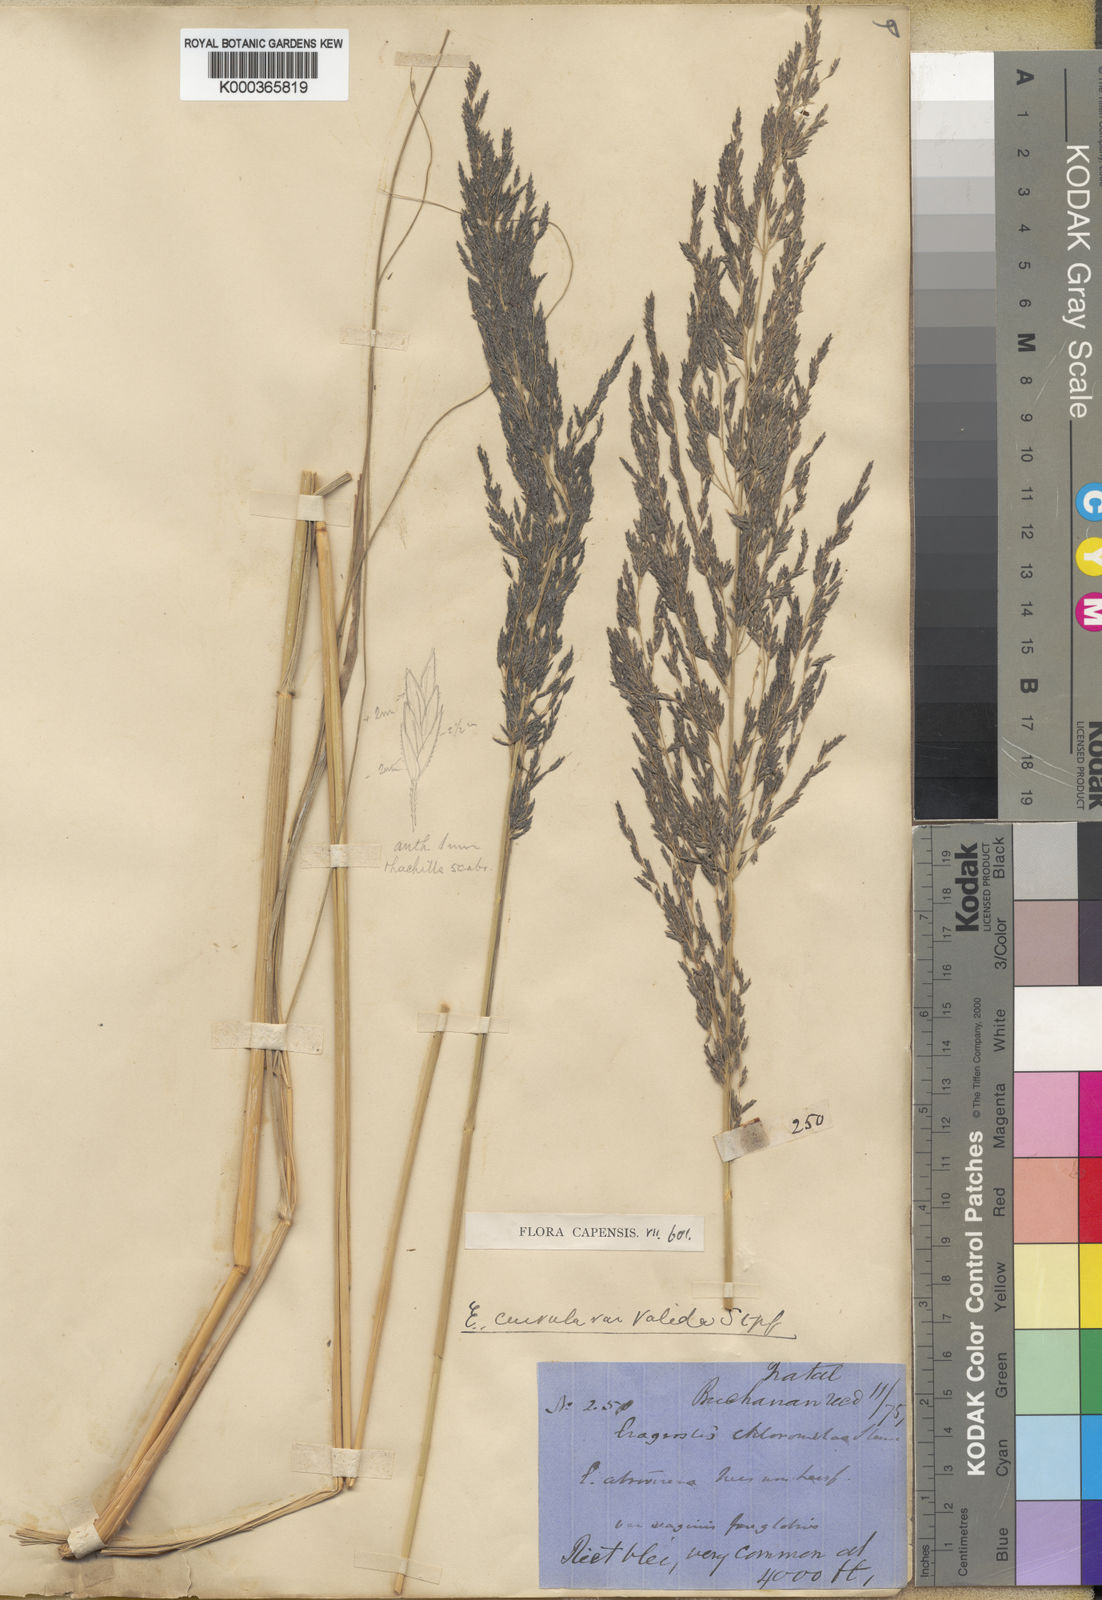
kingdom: Plantae
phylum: Tracheophyta
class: Liliopsida
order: Poales
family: Poaceae
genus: Eragrostis
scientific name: Eragrostis curvula
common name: African love-grass
